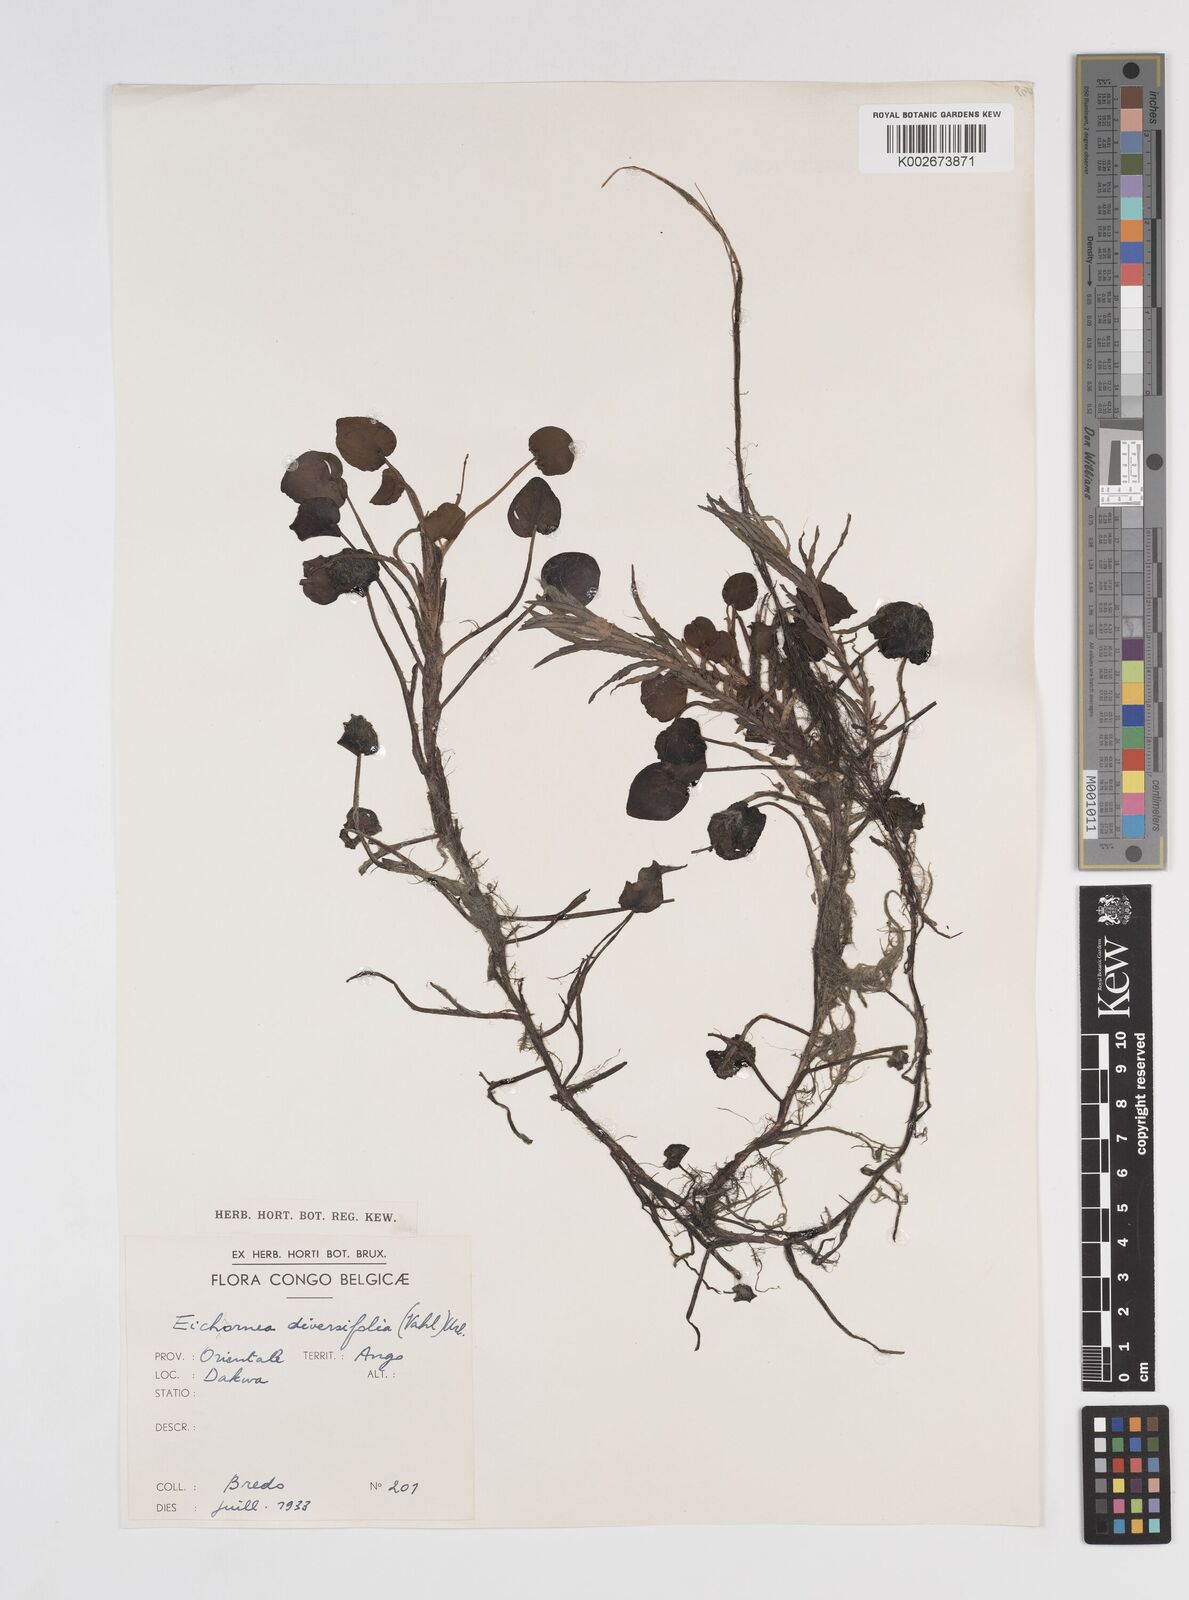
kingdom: Plantae
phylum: Tracheophyta
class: Liliopsida
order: Commelinales
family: Pontederiaceae
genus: Pontederia
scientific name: Pontederia natans
